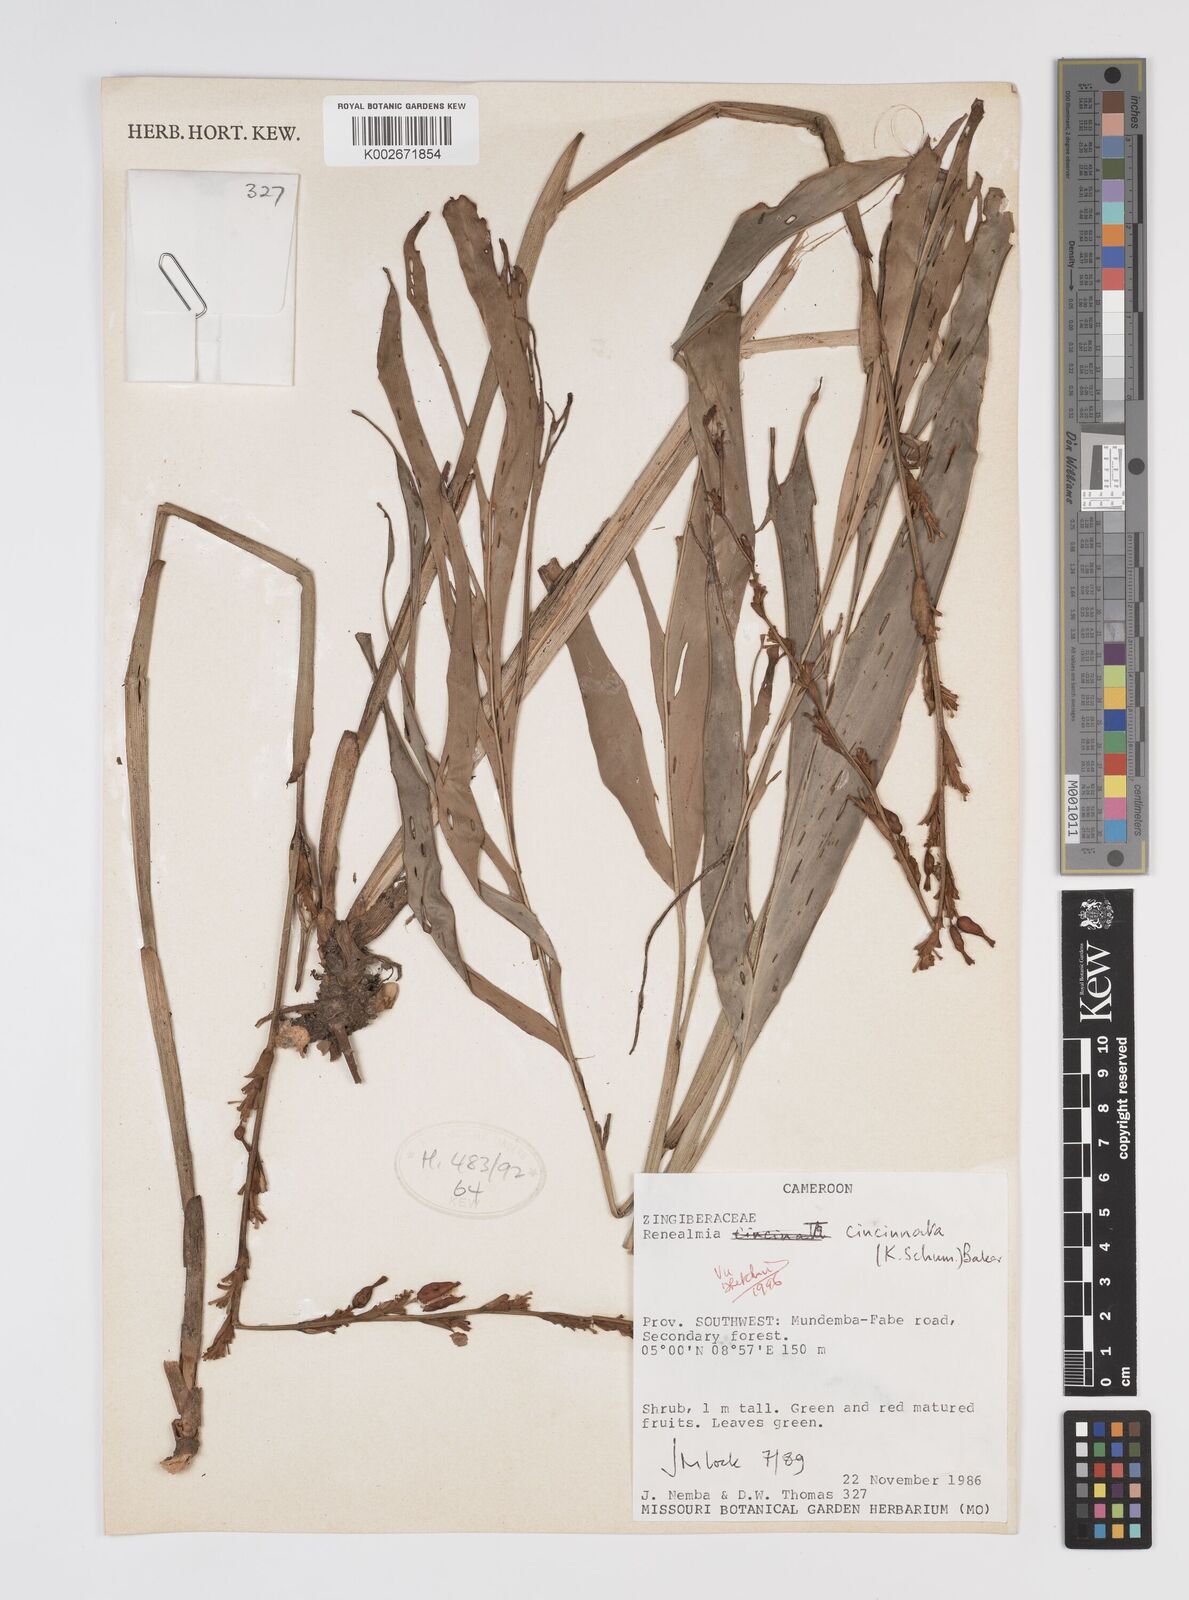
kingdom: Plantae
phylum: Tracheophyta
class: Liliopsida
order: Zingiberales
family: Zingiberaceae
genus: Renealmia
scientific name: Renealmia cincinnata
